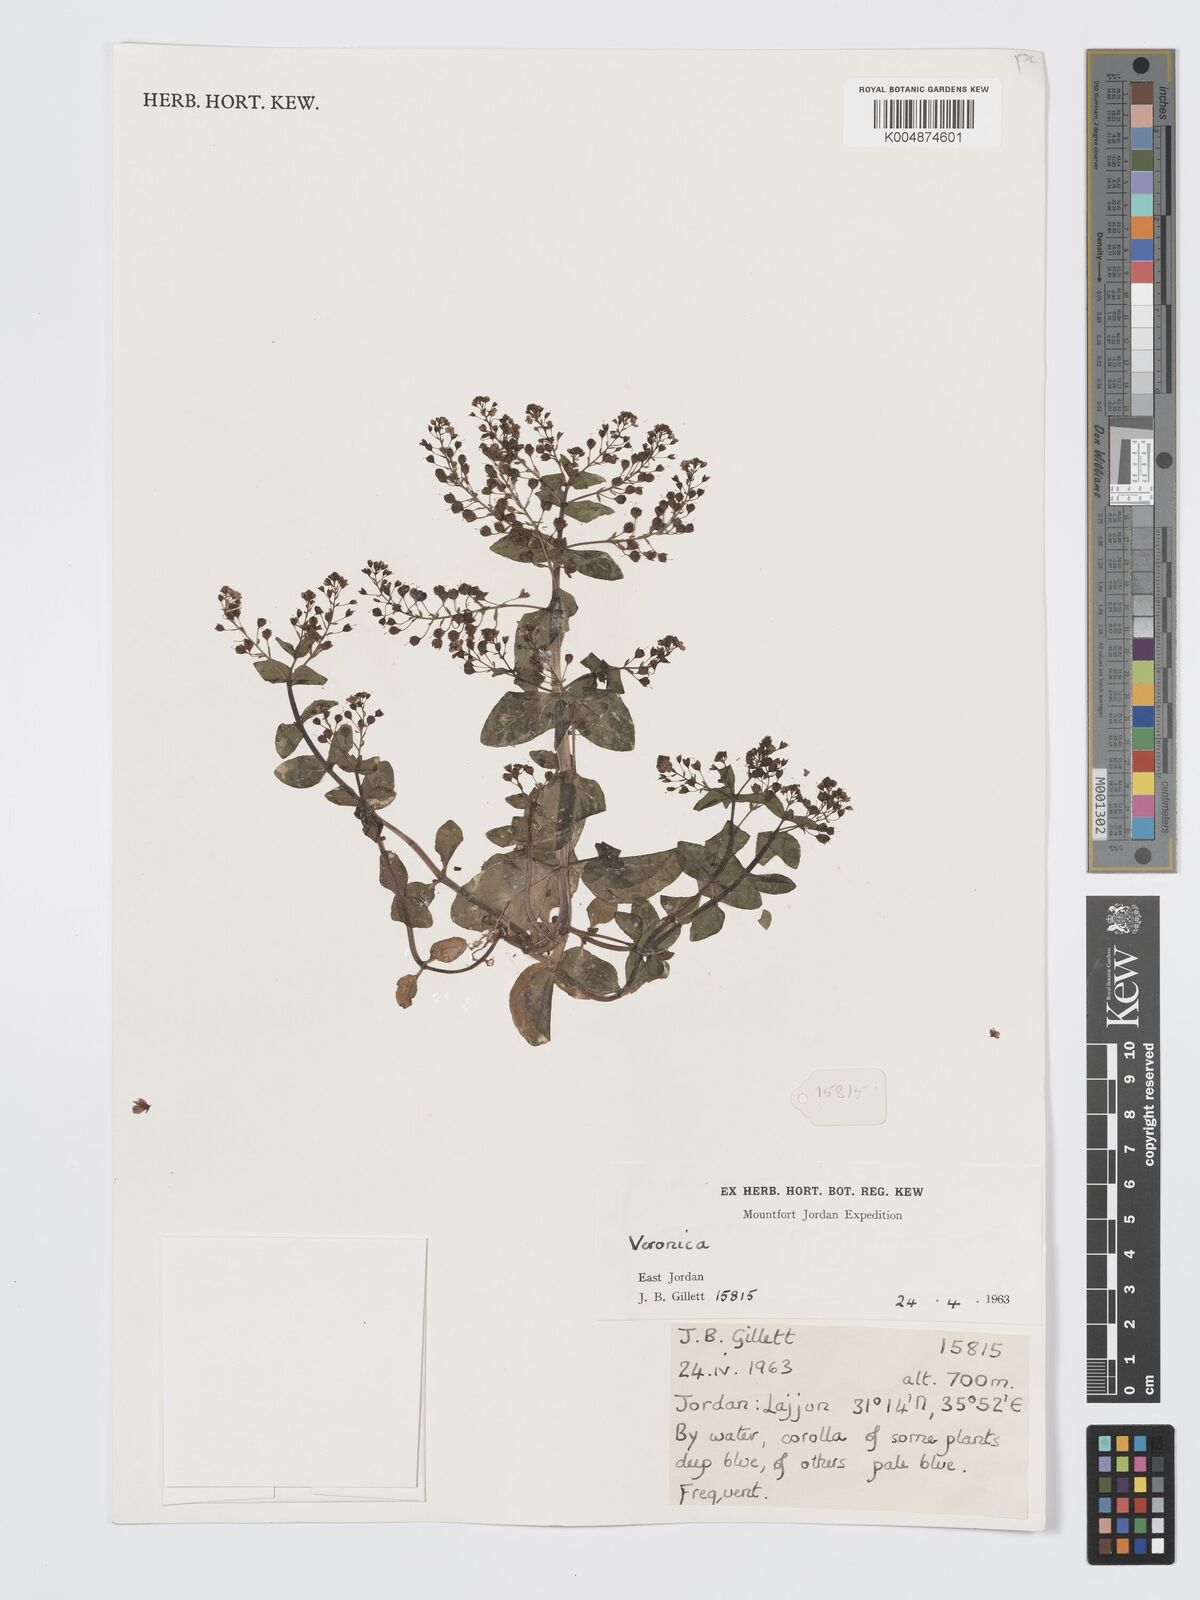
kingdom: Plantae
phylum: Tracheophyta
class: Magnoliopsida
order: Lamiales
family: Plantaginaceae
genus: Veronica
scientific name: Veronica
